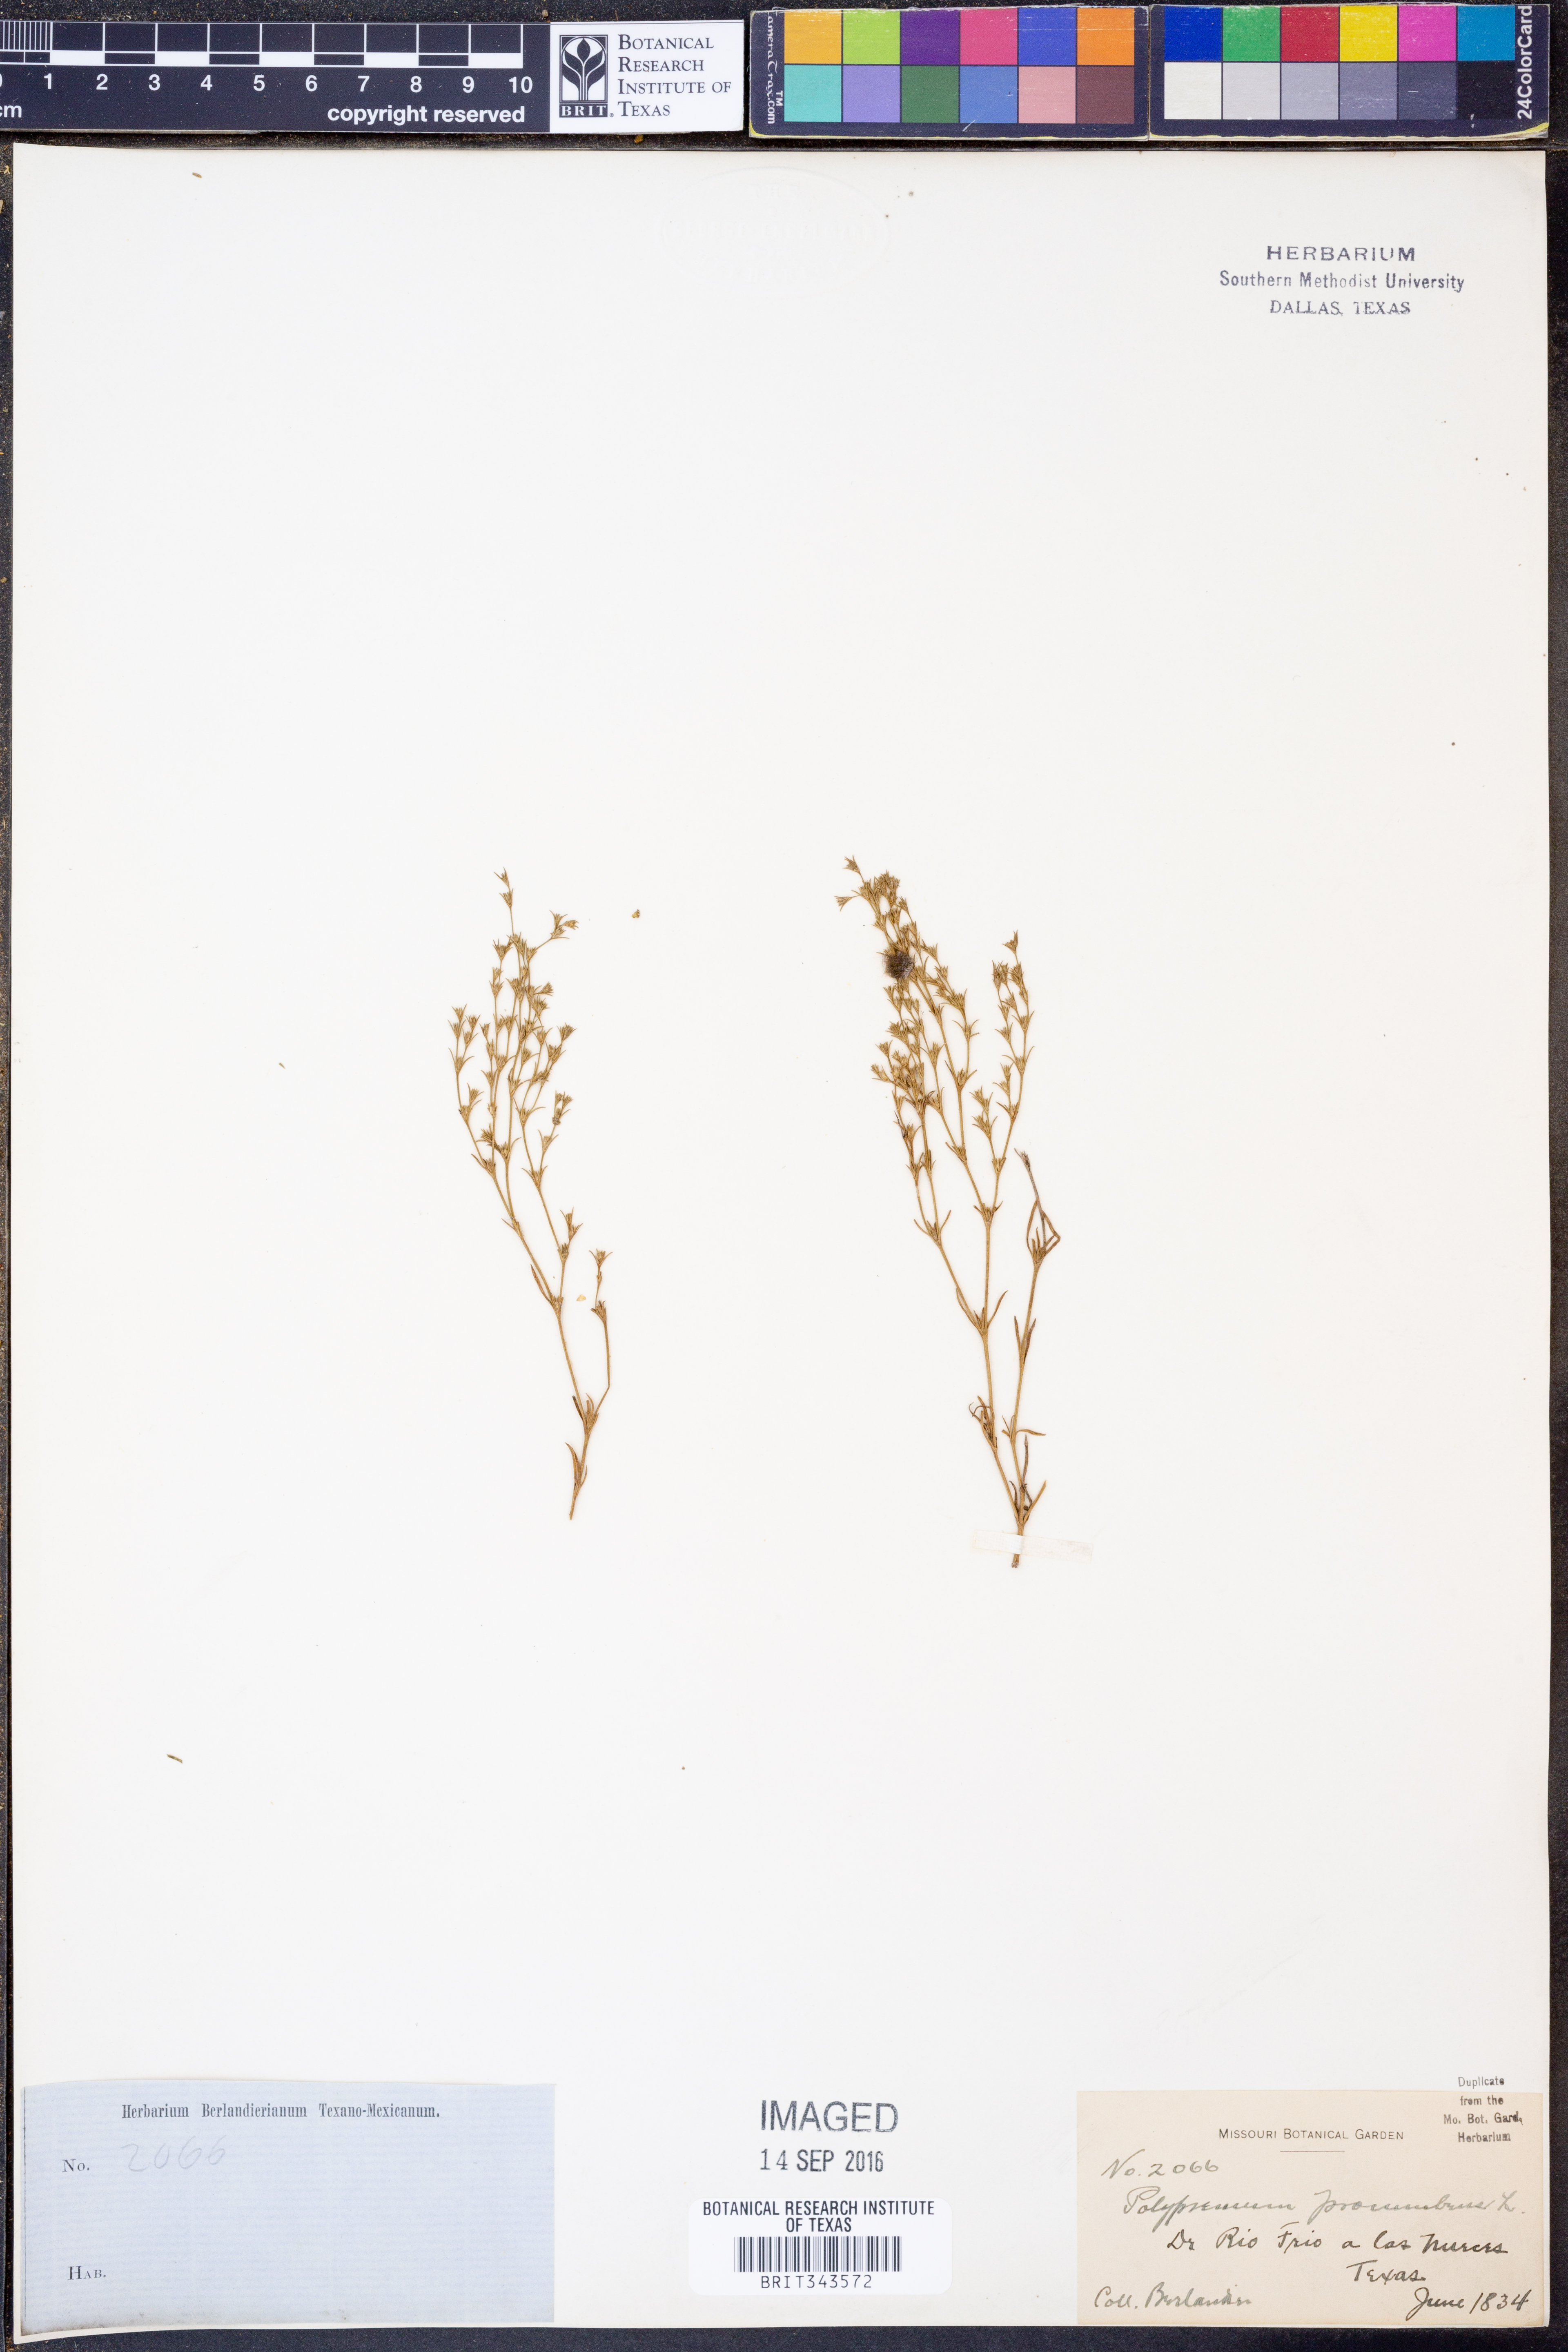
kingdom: Plantae
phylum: Tracheophyta
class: Magnoliopsida
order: Lamiales
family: Tetrachondraceae
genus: Polypremum
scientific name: Polypremum procumbens
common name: Juniper-leaf
